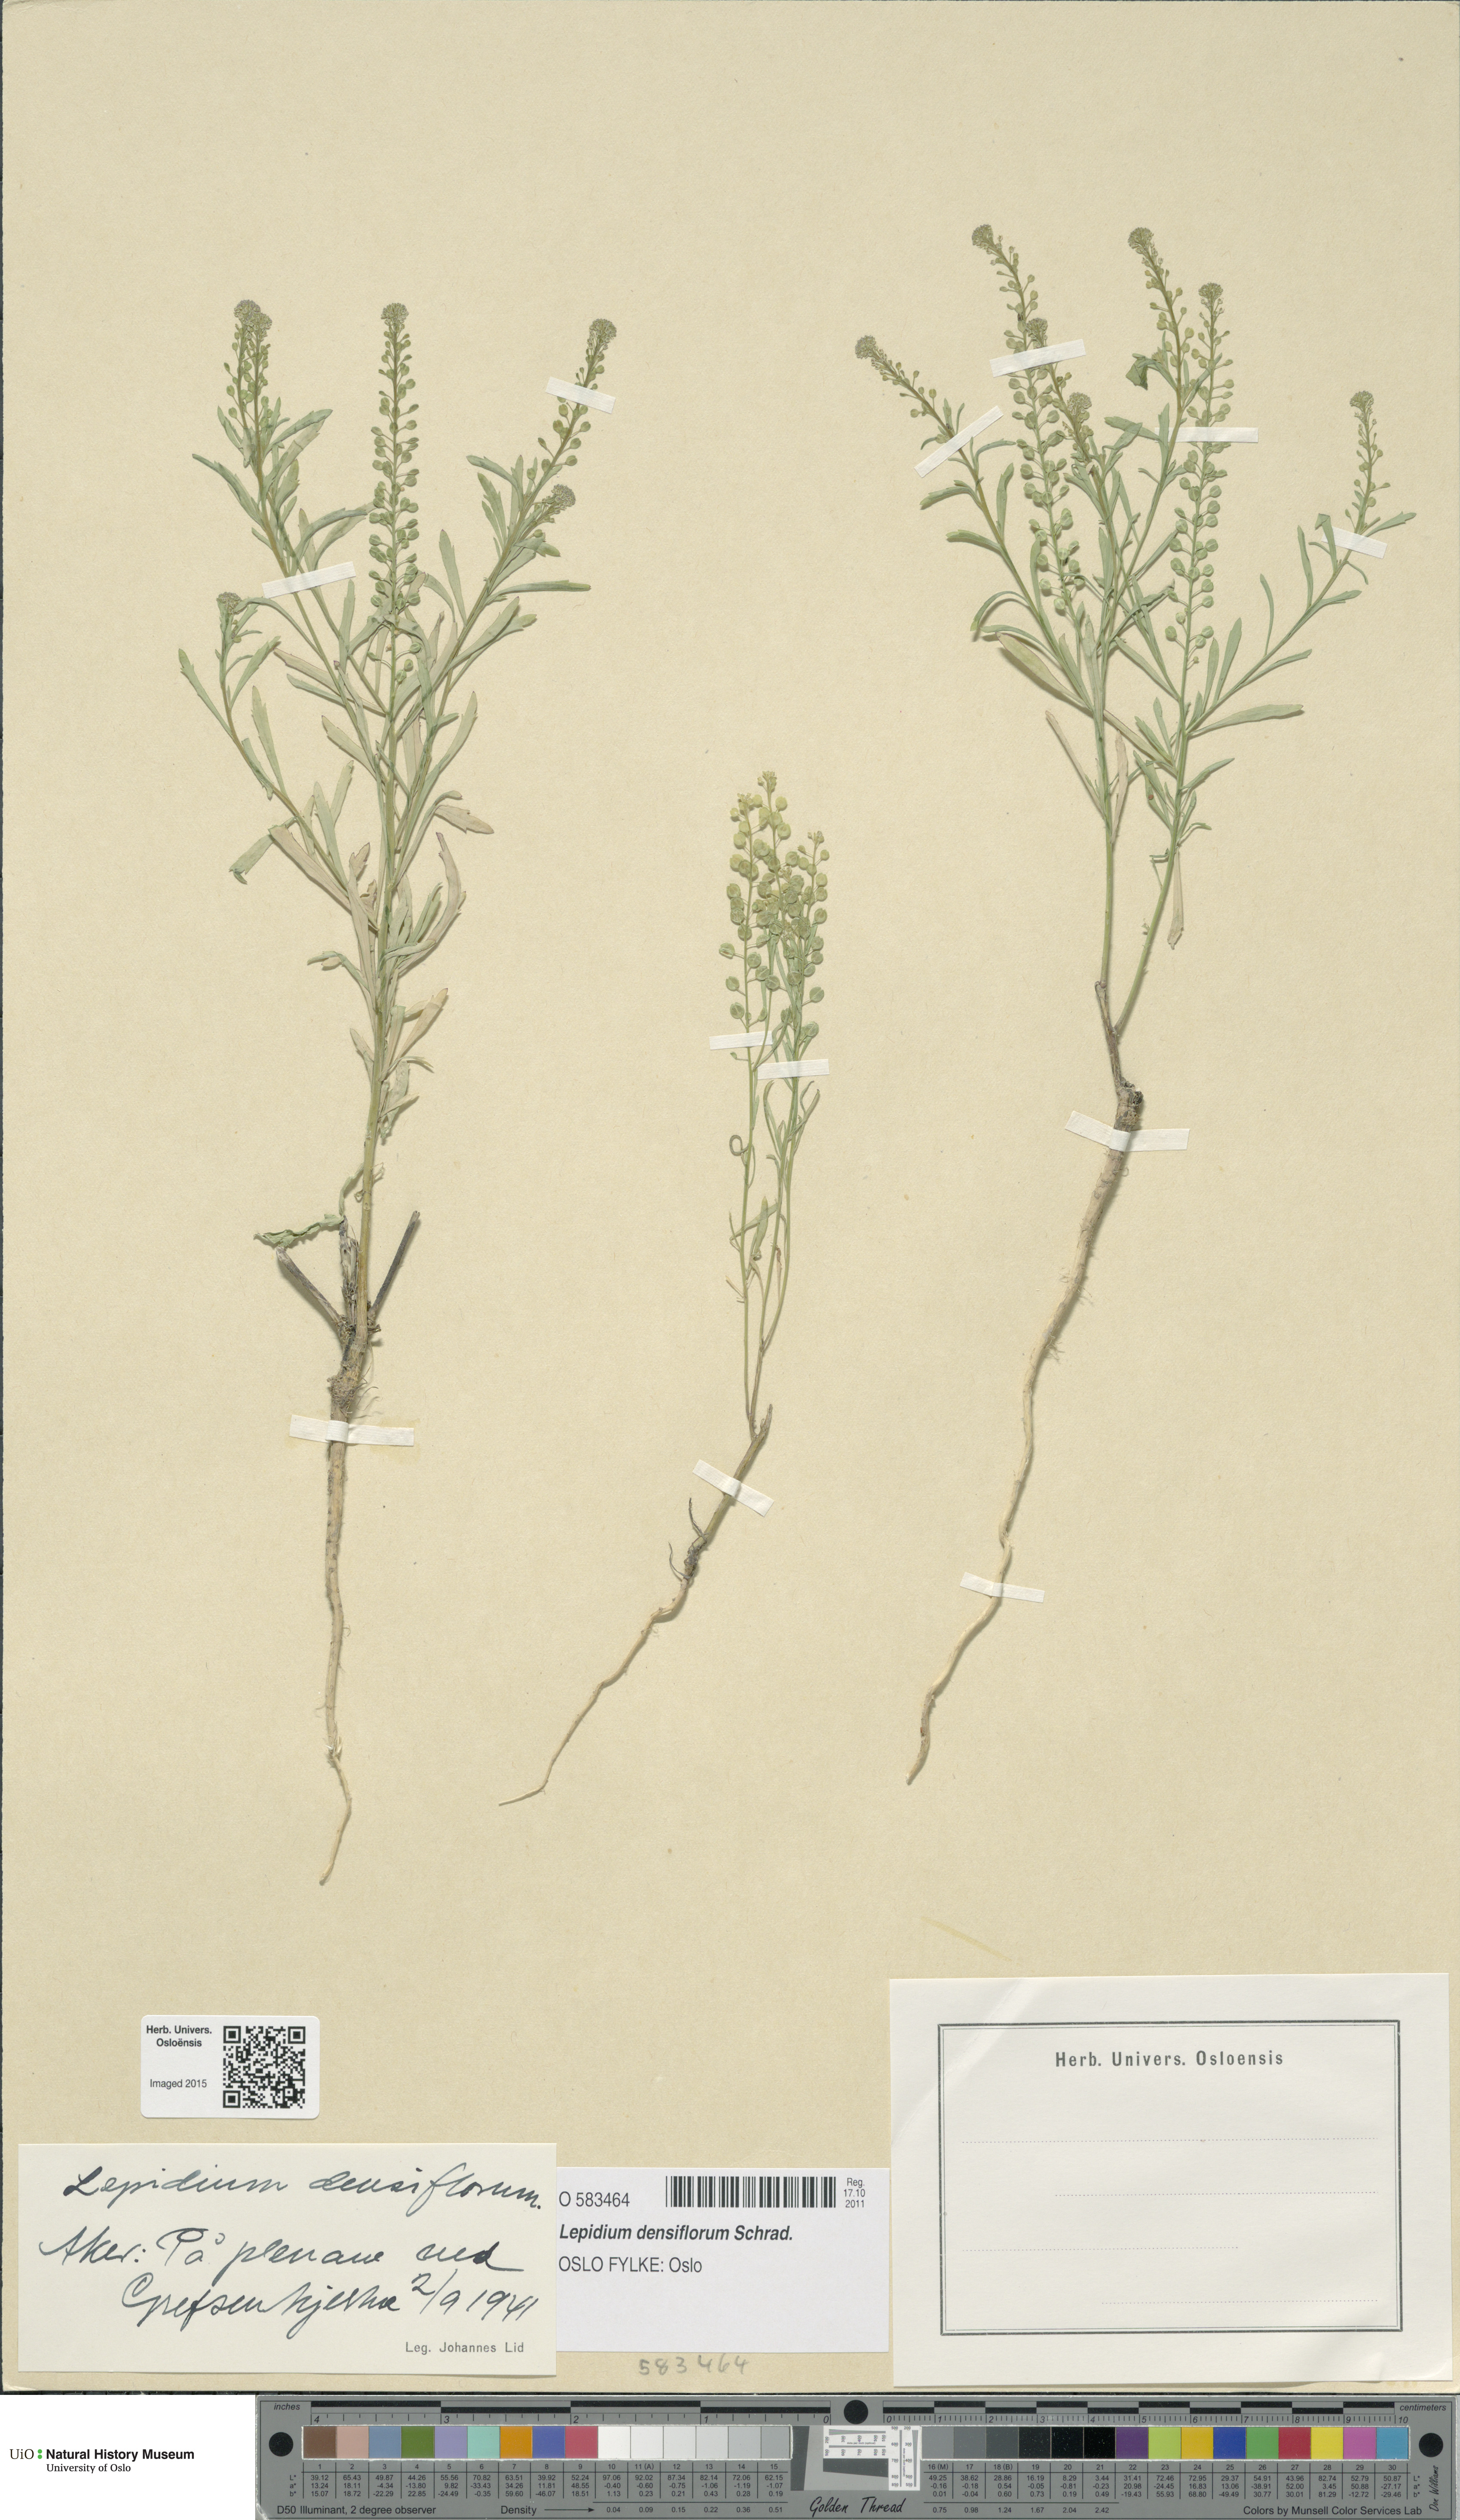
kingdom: Plantae
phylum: Tracheophyta
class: Magnoliopsida
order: Brassicales
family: Brassicaceae
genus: Lepidium
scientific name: Lepidium densiflorum
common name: Miner's pepperwort
